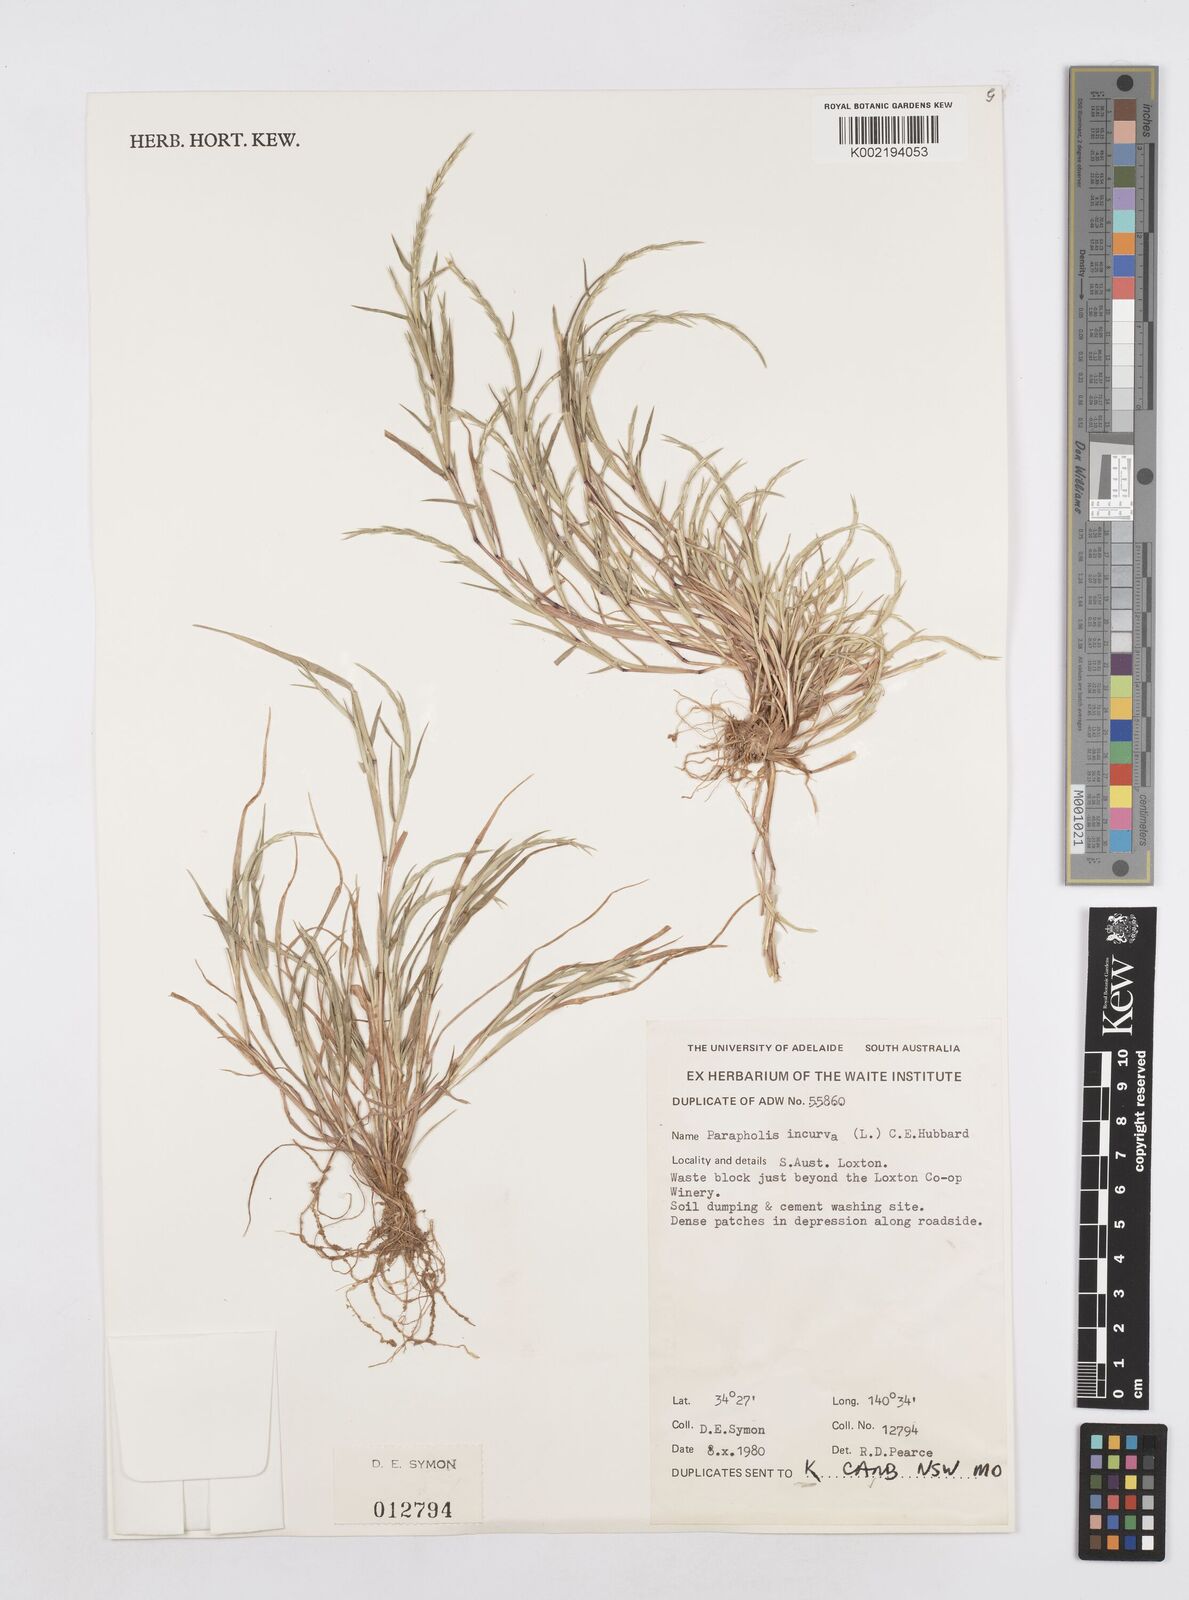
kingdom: Plantae
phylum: Tracheophyta
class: Liliopsida
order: Poales
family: Poaceae
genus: Parapholis
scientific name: Parapholis incurva
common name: Curved sicklegrass
